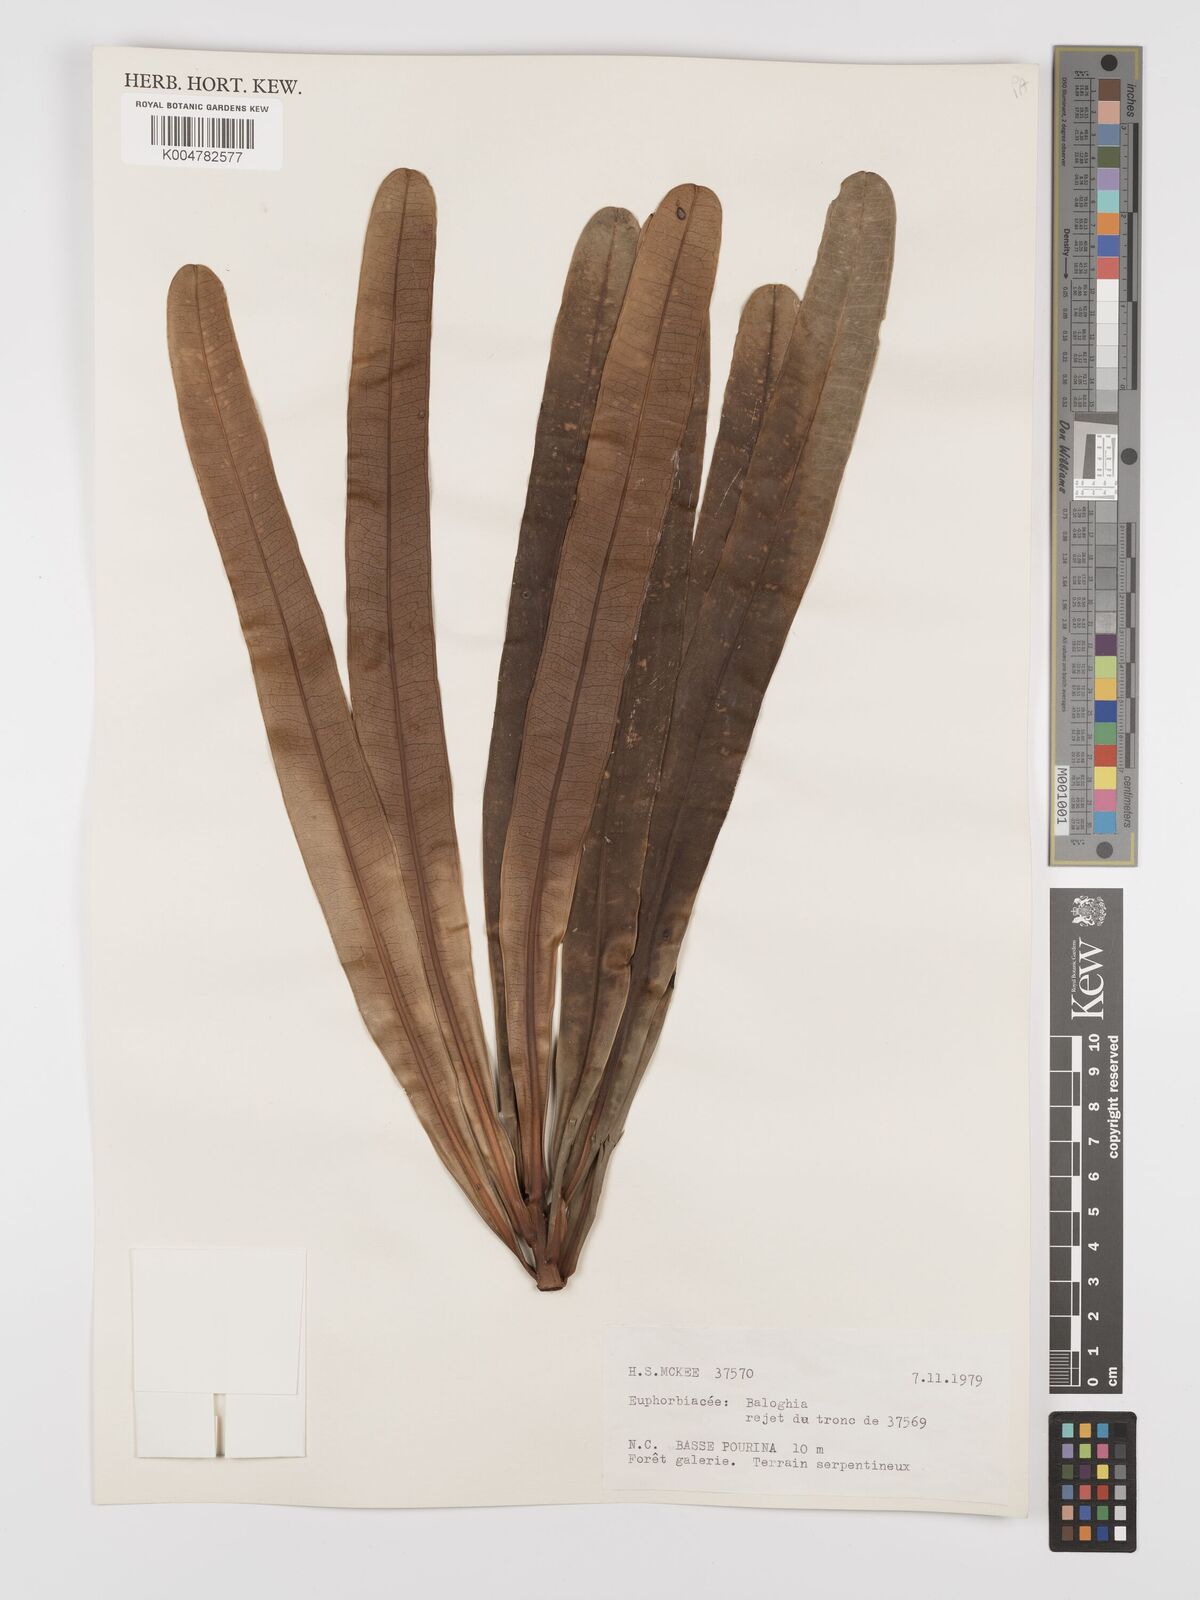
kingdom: Plantae
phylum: Tracheophyta
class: Magnoliopsida
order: Malpighiales
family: Euphorbiaceae
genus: Baloghia
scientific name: Baloghia anisomera
